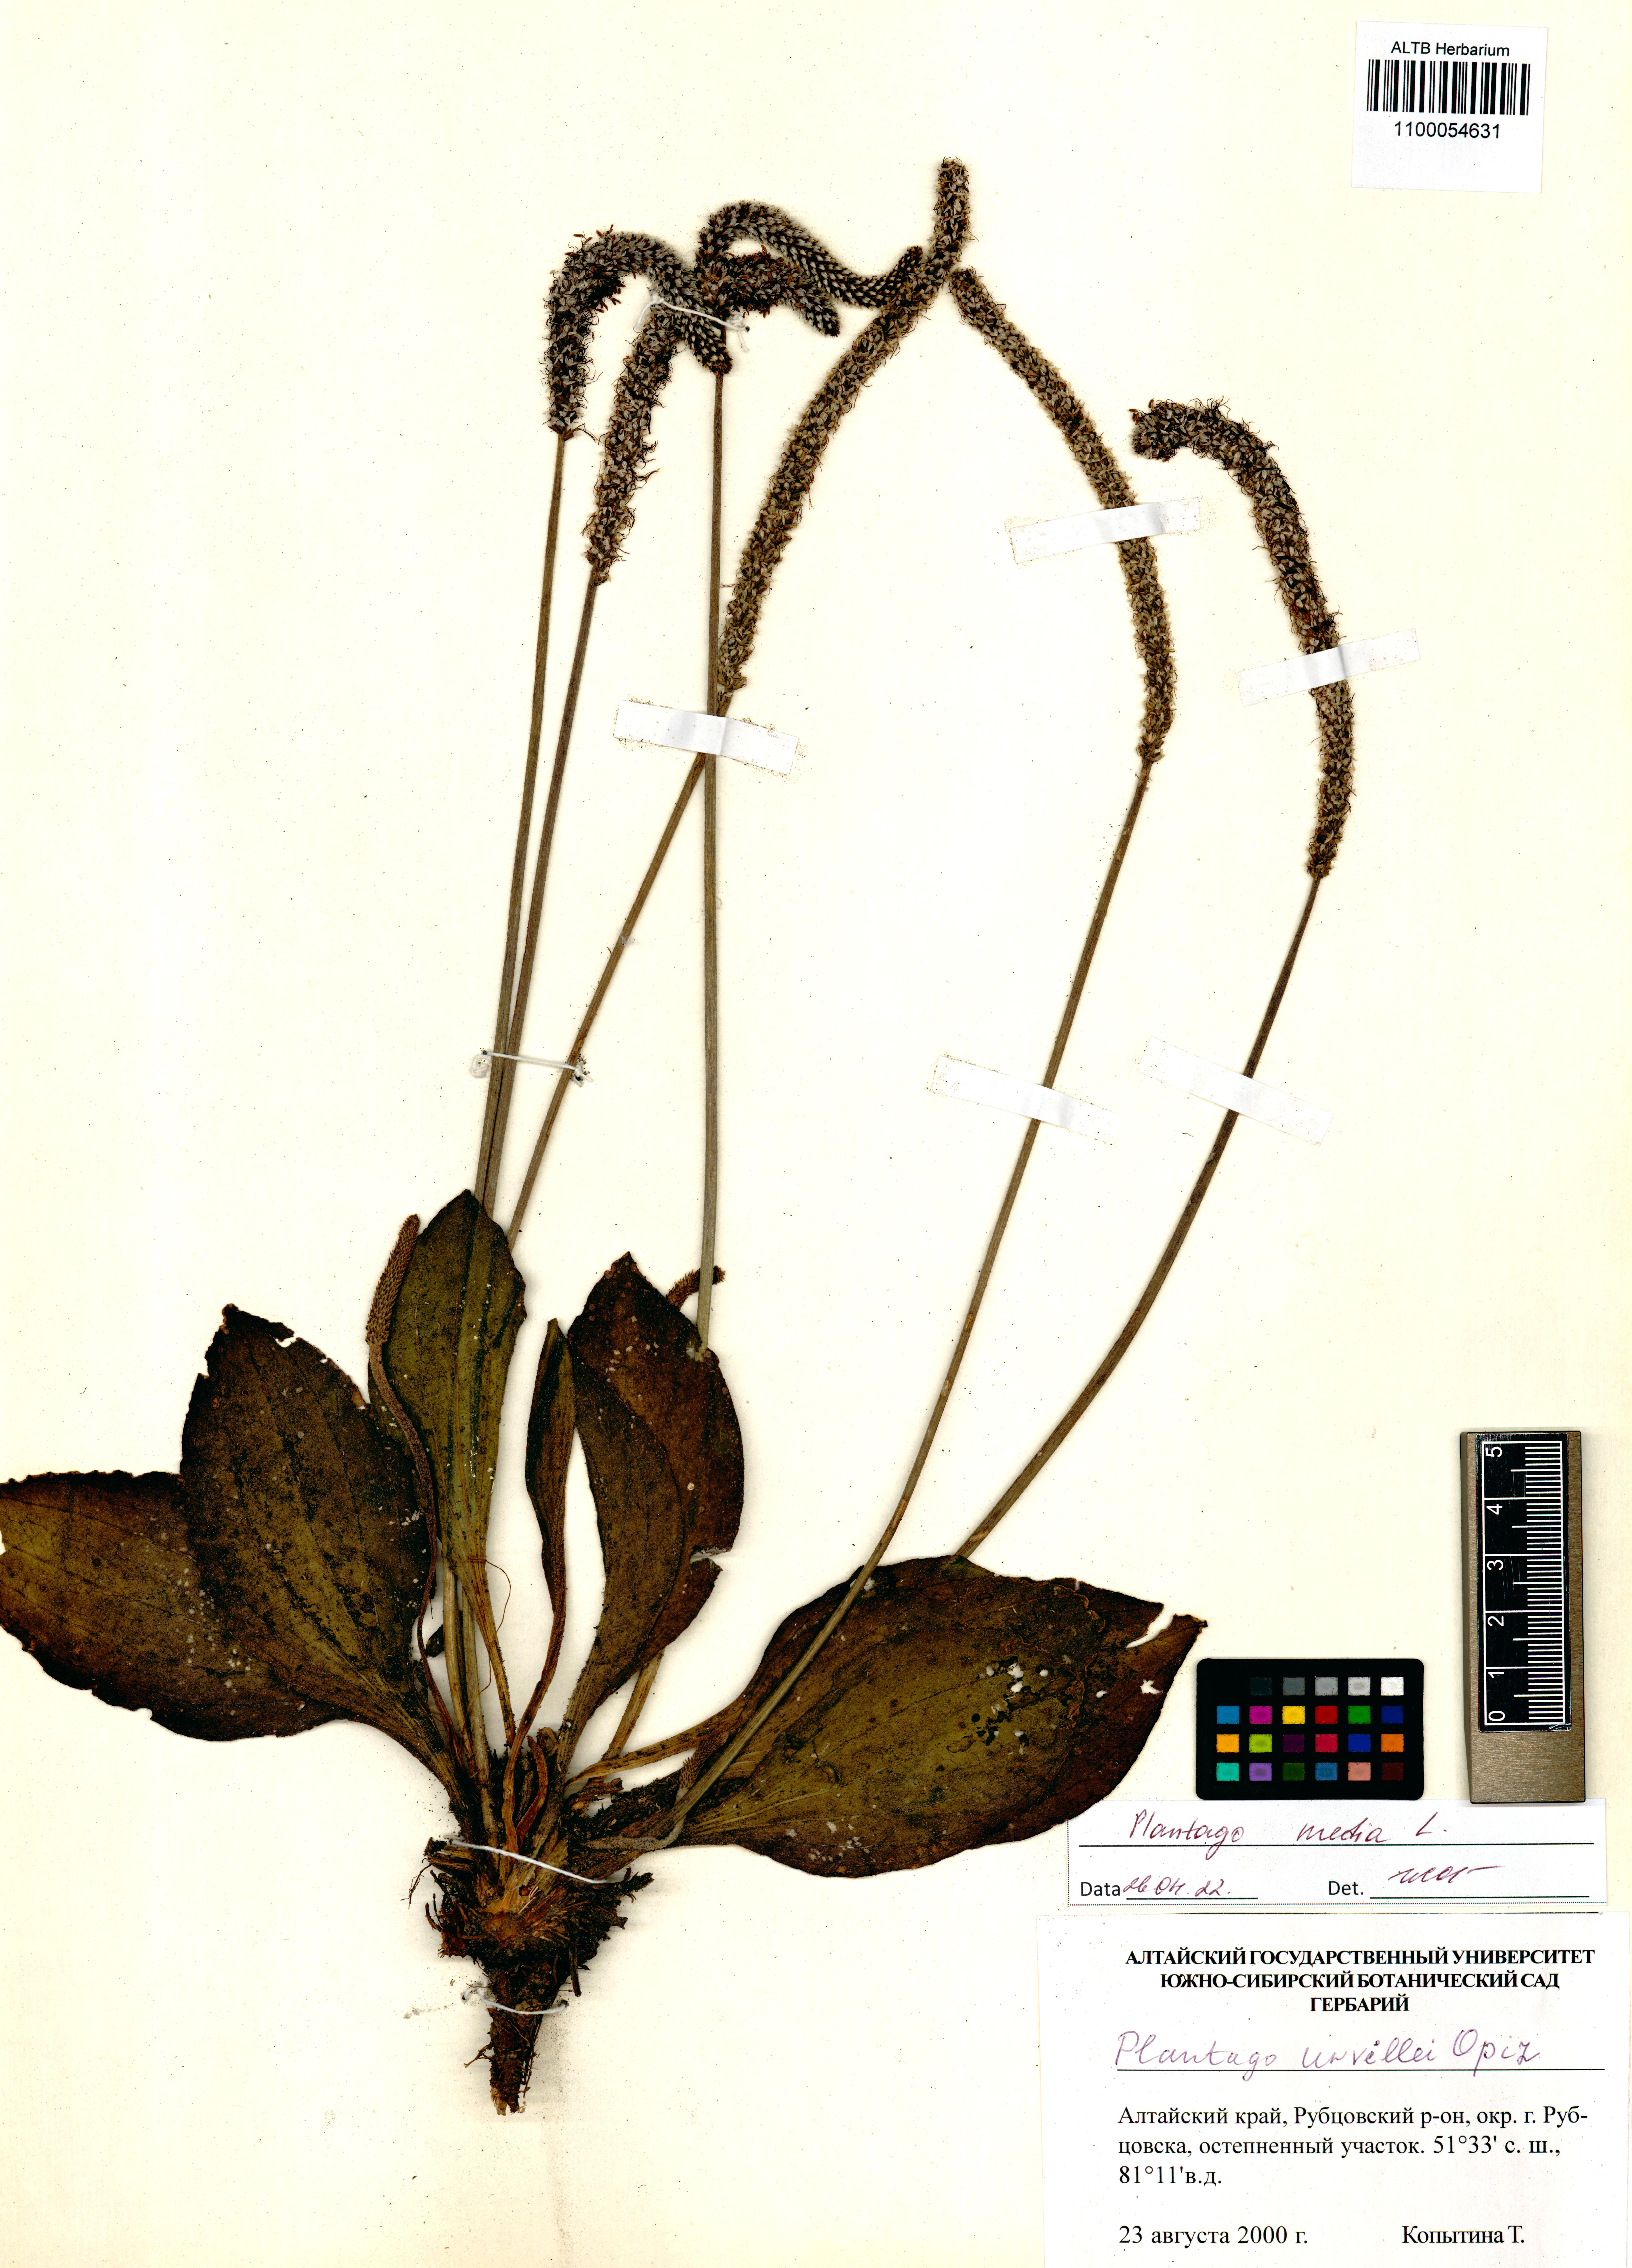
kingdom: Plantae
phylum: Tracheophyta
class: Magnoliopsida
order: Lamiales
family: Plantaginaceae
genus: Plantago
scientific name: Plantago media
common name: Hoary plantain
